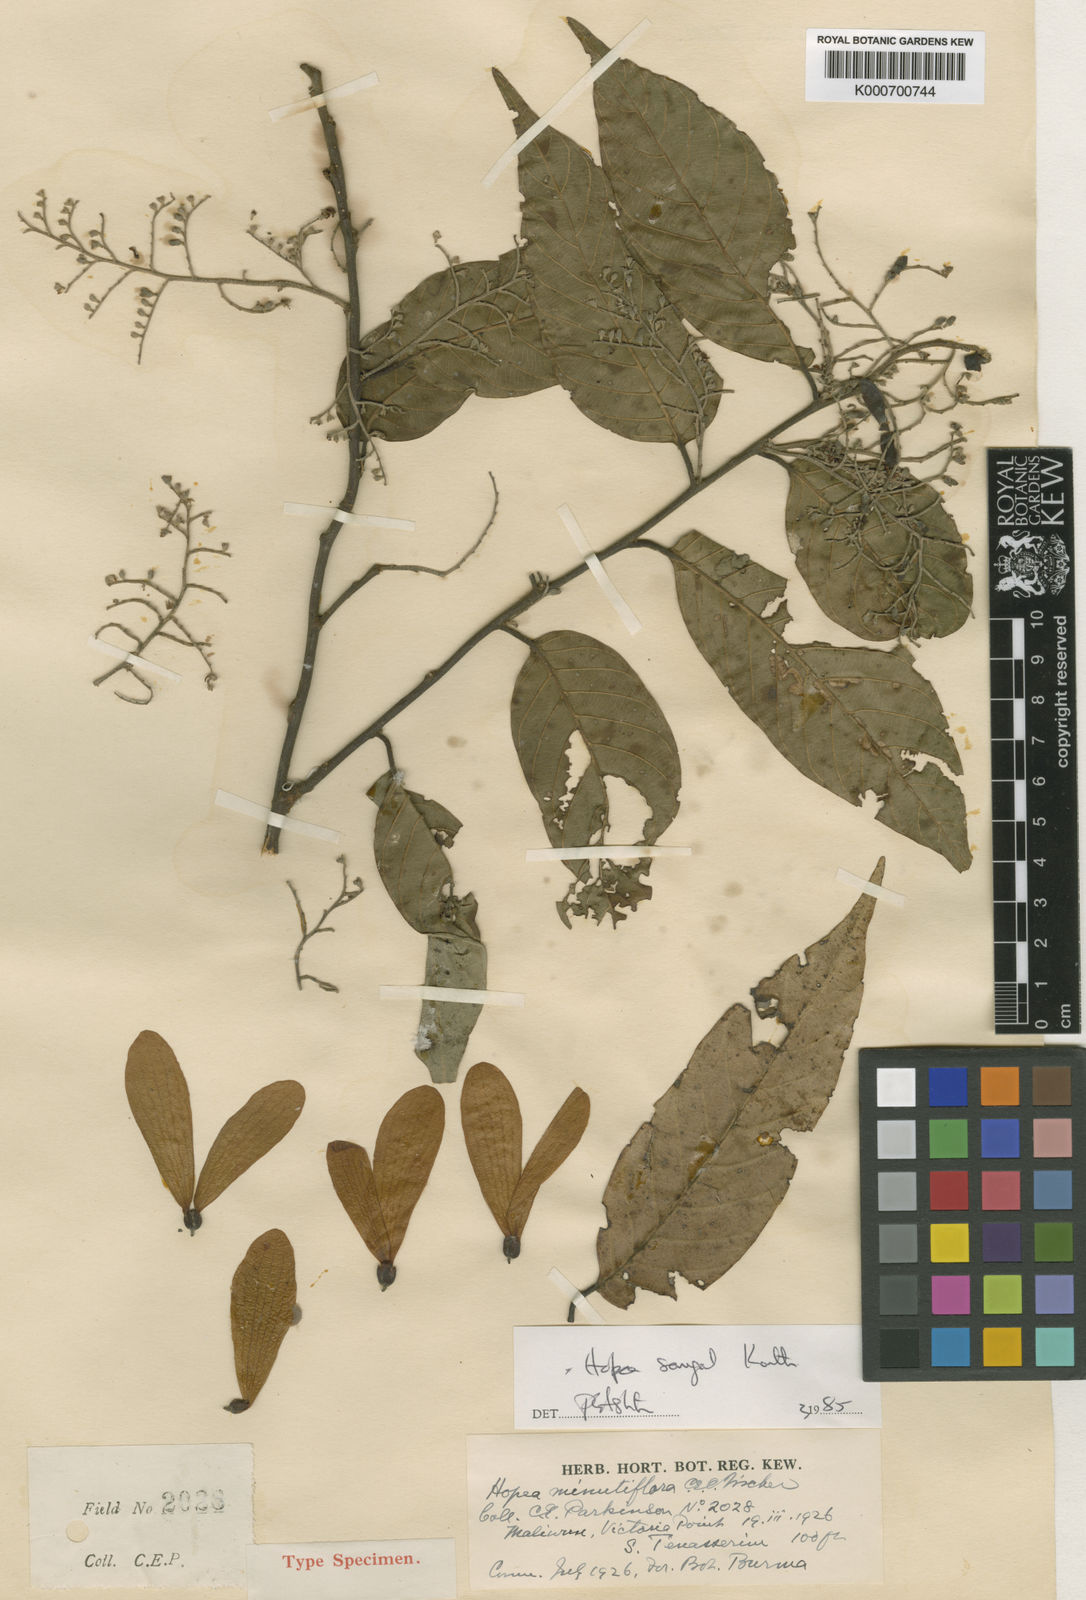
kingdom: Plantae
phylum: Tracheophyta
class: Magnoliopsida
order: Malvales
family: Dipterocarpaceae
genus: Hopea
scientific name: Hopea sangal
